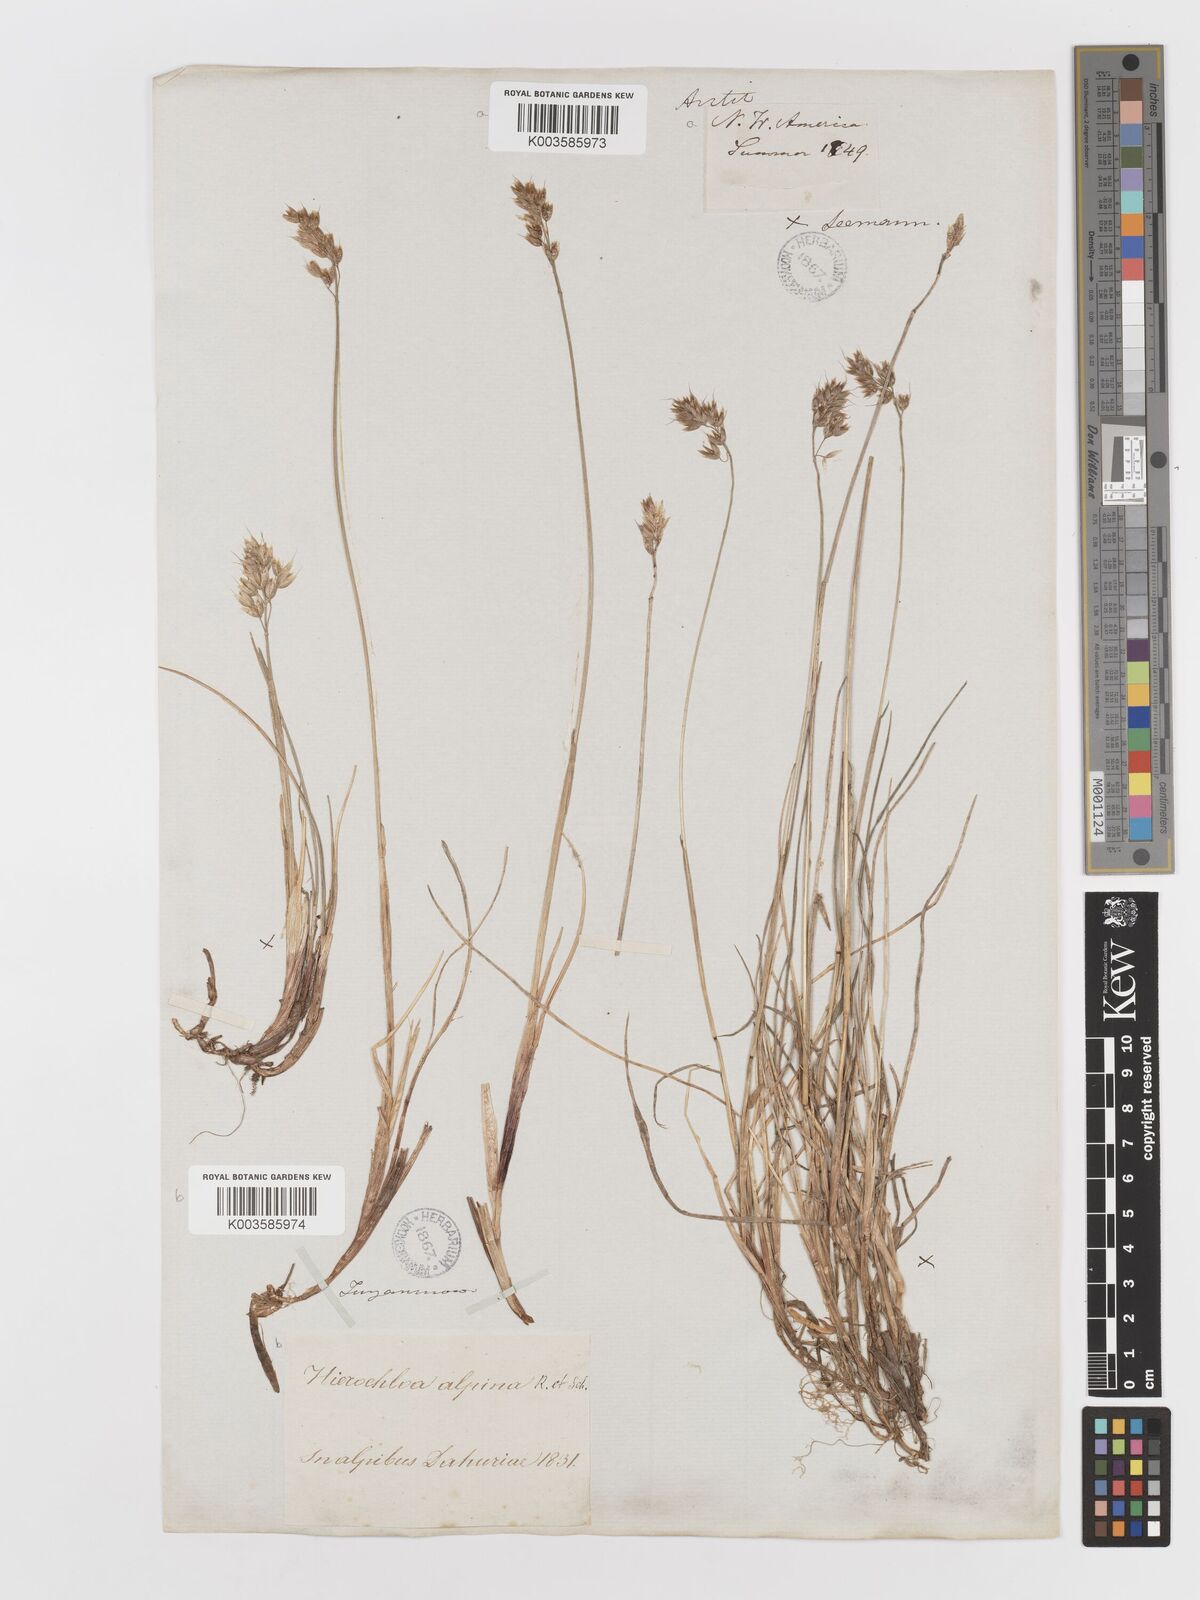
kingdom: Plantae
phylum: Tracheophyta
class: Liliopsida
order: Poales
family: Poaceae
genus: Anthoxanthum
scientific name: Anthoxanthum monticola
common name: Alpine sweetgrass
